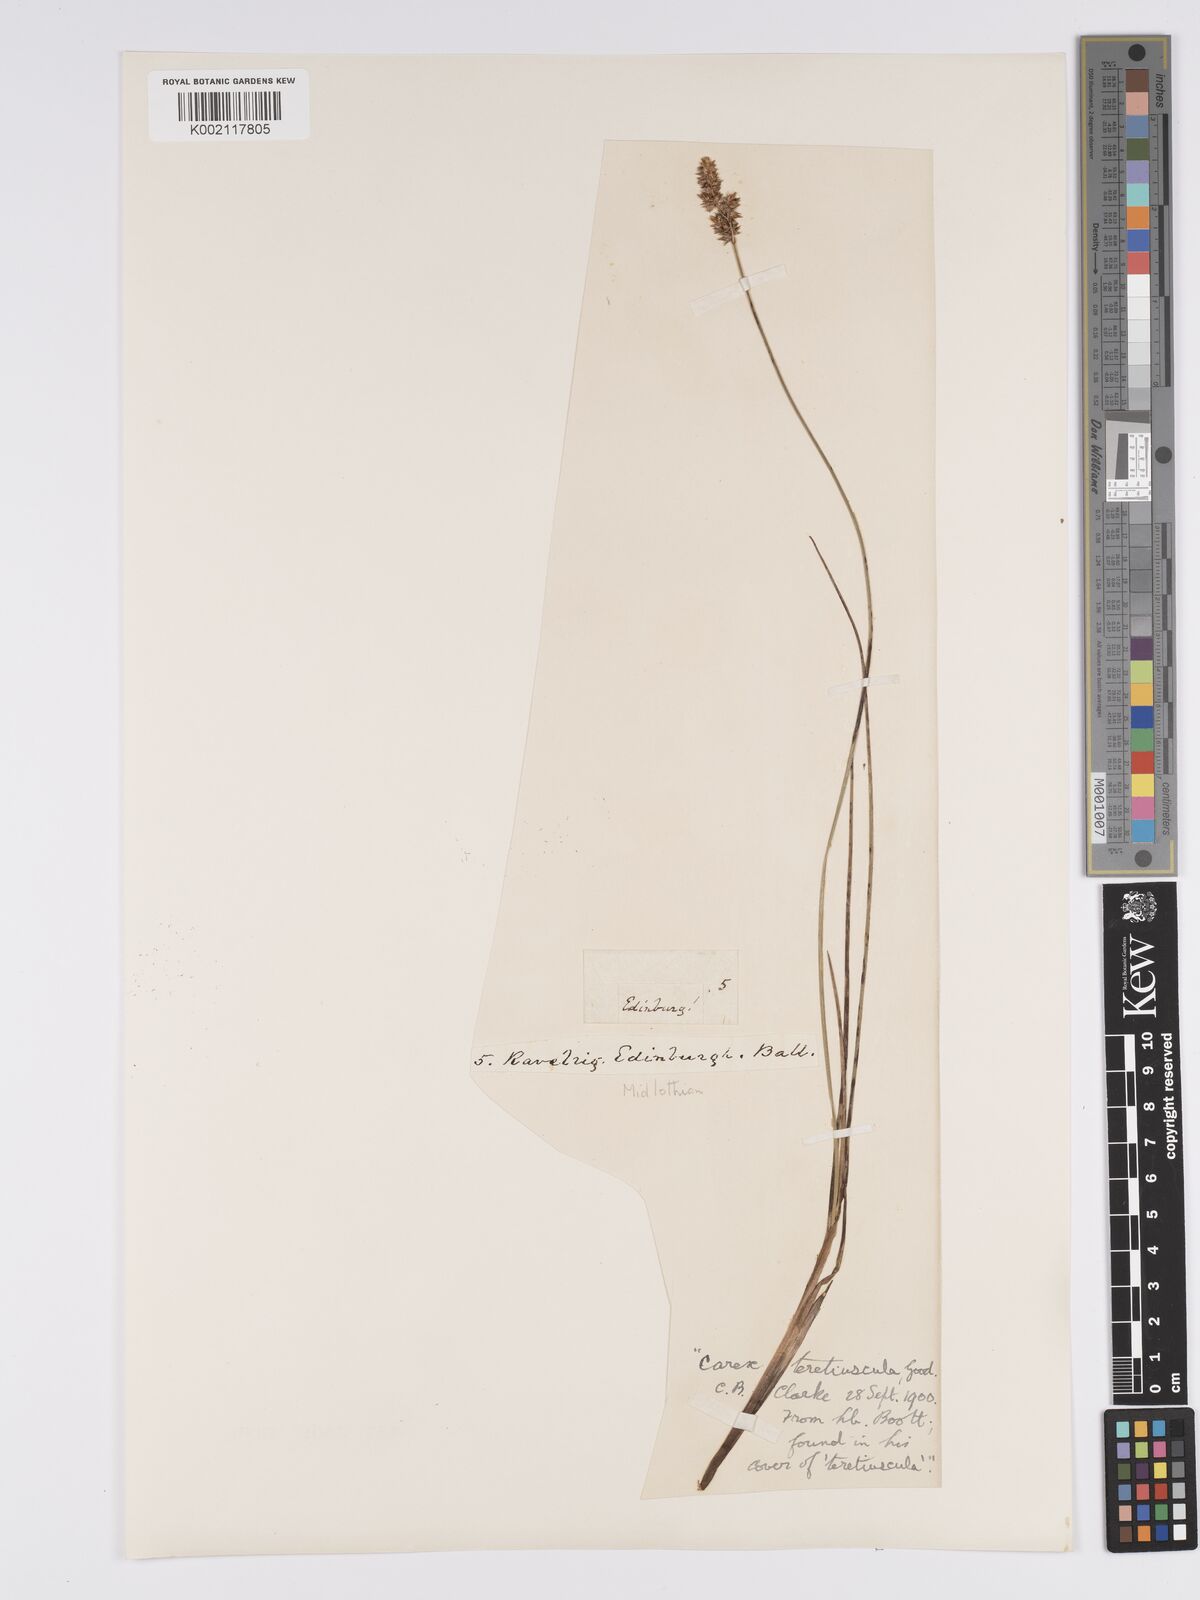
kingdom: Plantae
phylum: Tracheophyta
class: Liliopsida
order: Poales
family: Cyperaceae
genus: Carex
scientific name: Carex diandra
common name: Lesser tussock-sedge
